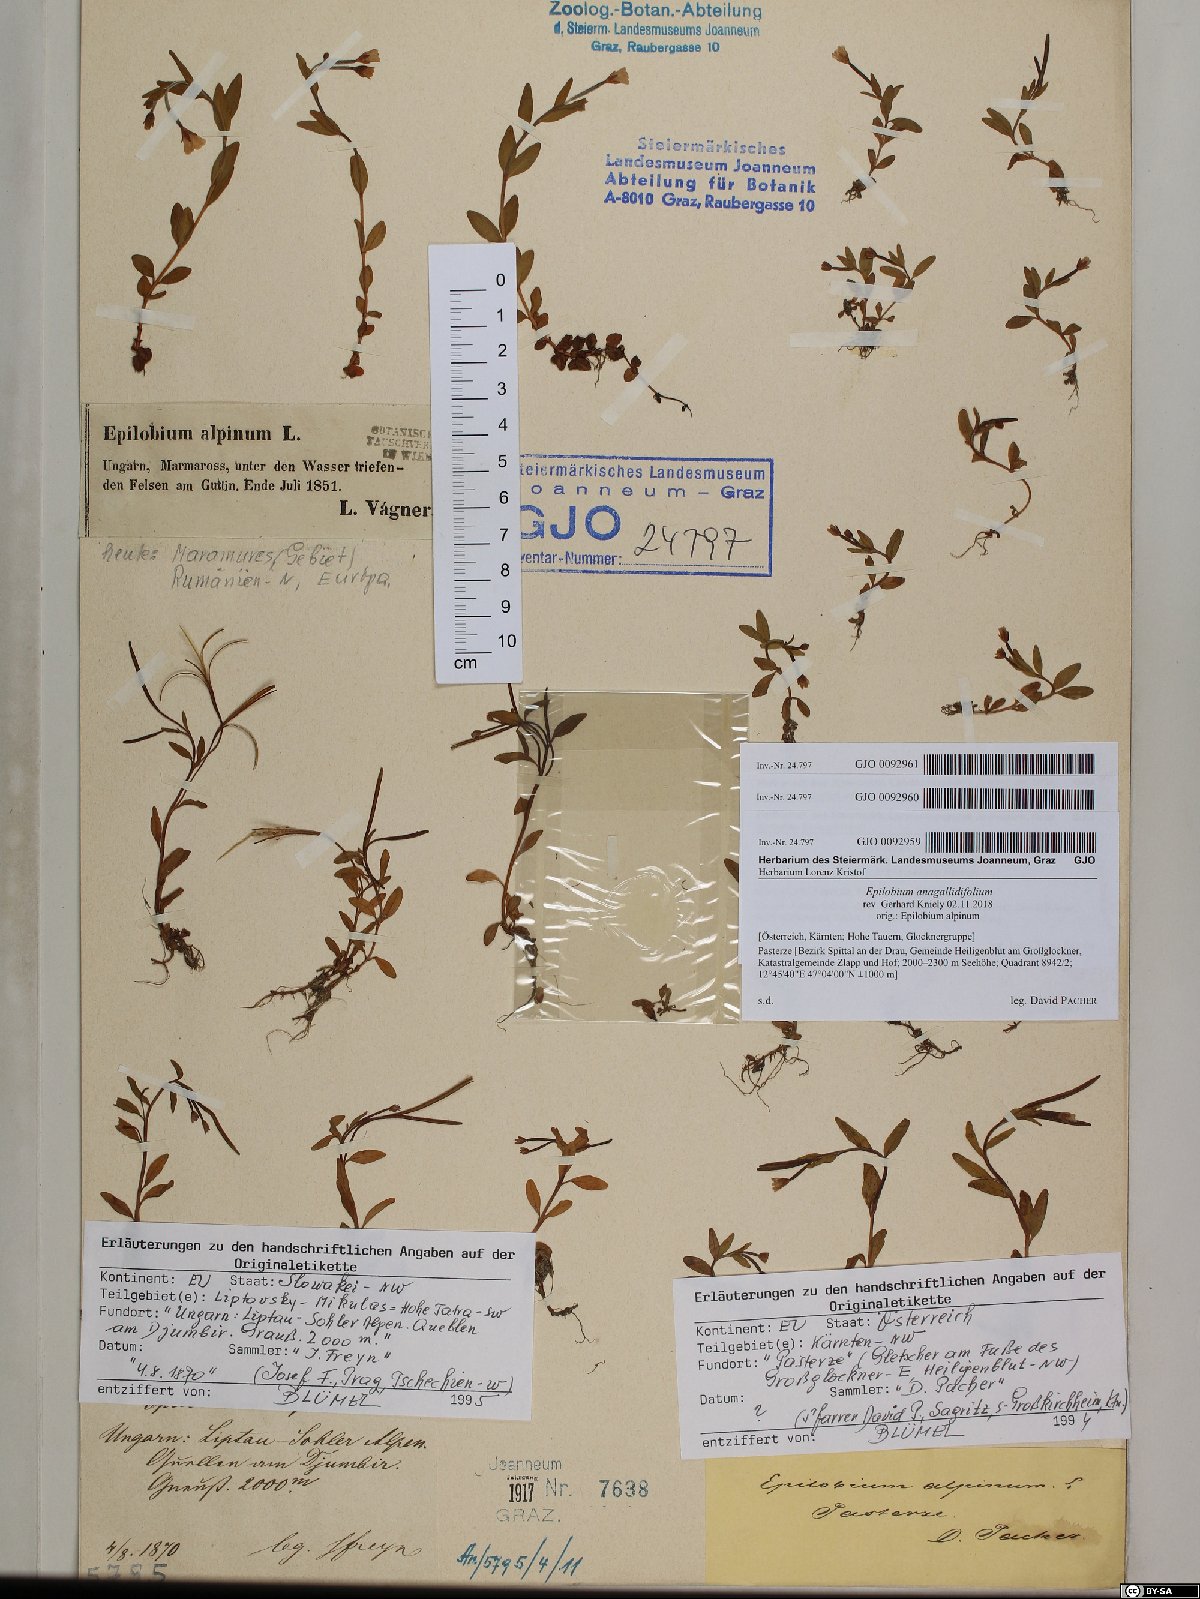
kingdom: Plantae
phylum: Tracheophyta
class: Magnoliopsida
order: Myrtales
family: Onagraceae
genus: Epilobium
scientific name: Epilobium anagallidifolium
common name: Alpine willowherb
